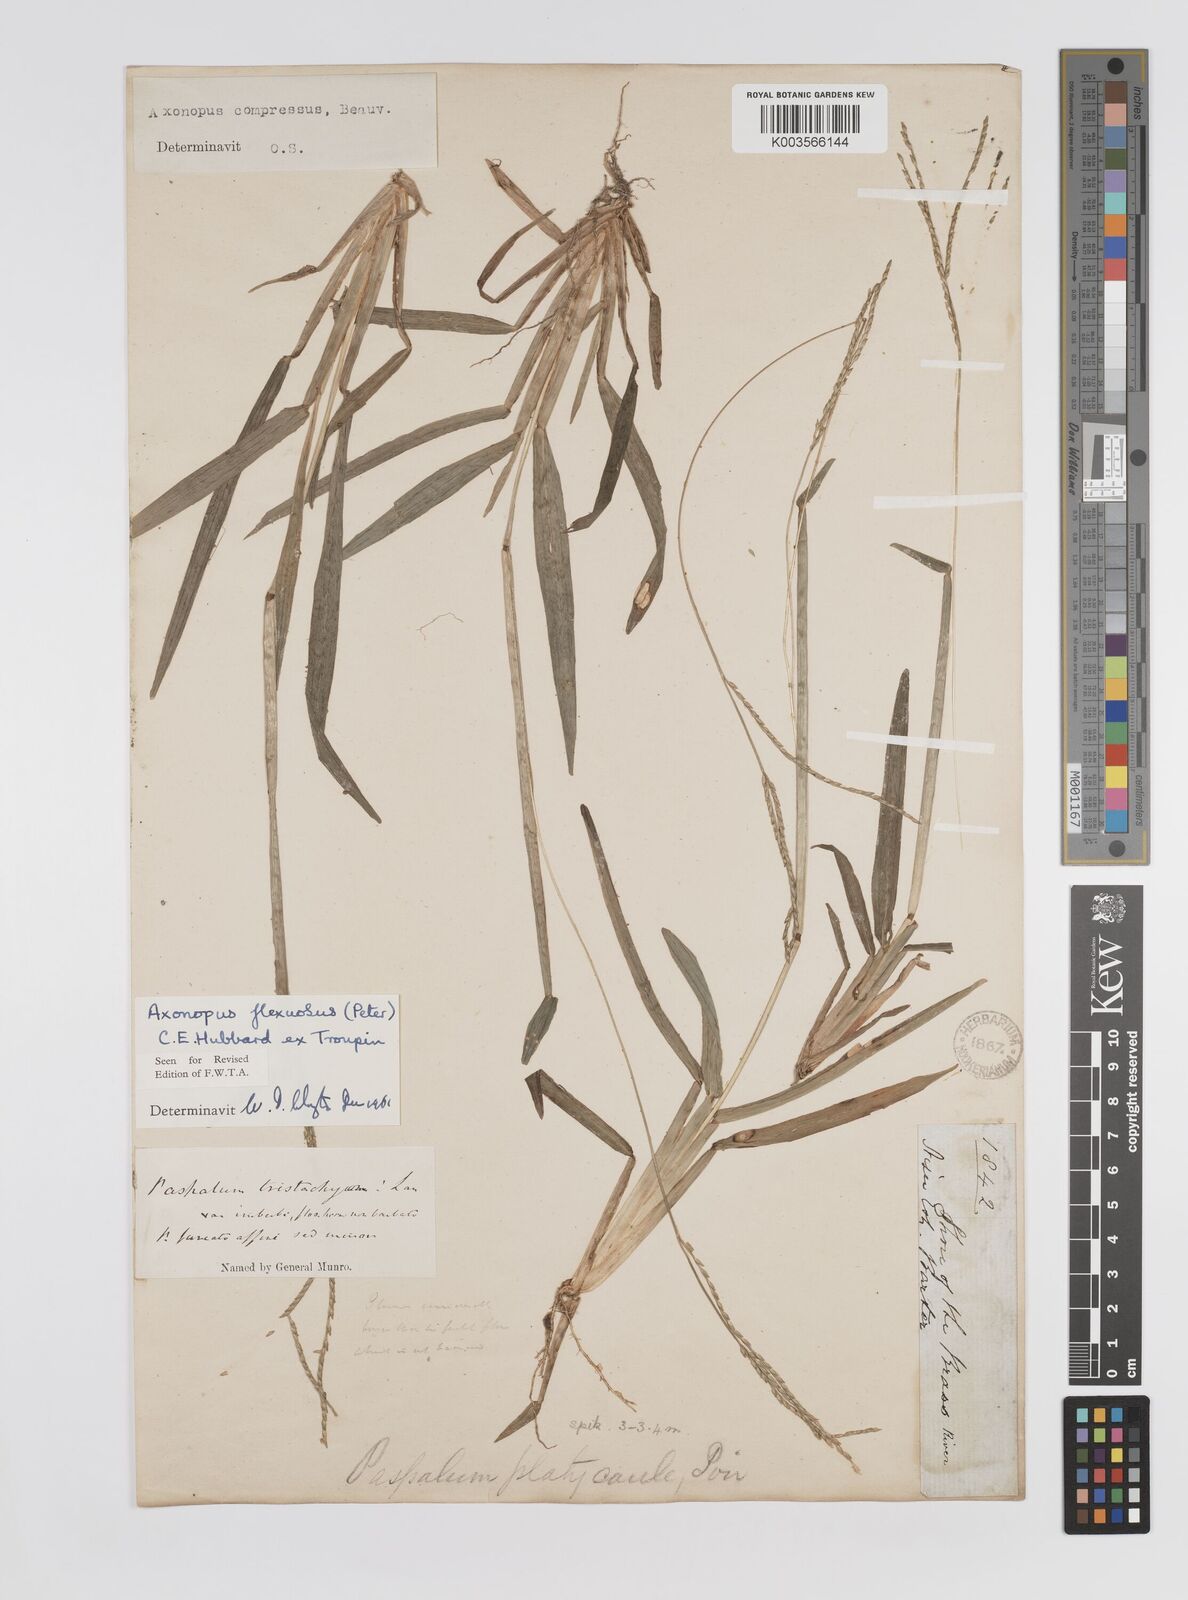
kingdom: Plantae
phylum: Tracheophyta
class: Liliopsida
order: Poales
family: Poaceae
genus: Axonopus
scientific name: Axonopus flexuosus
